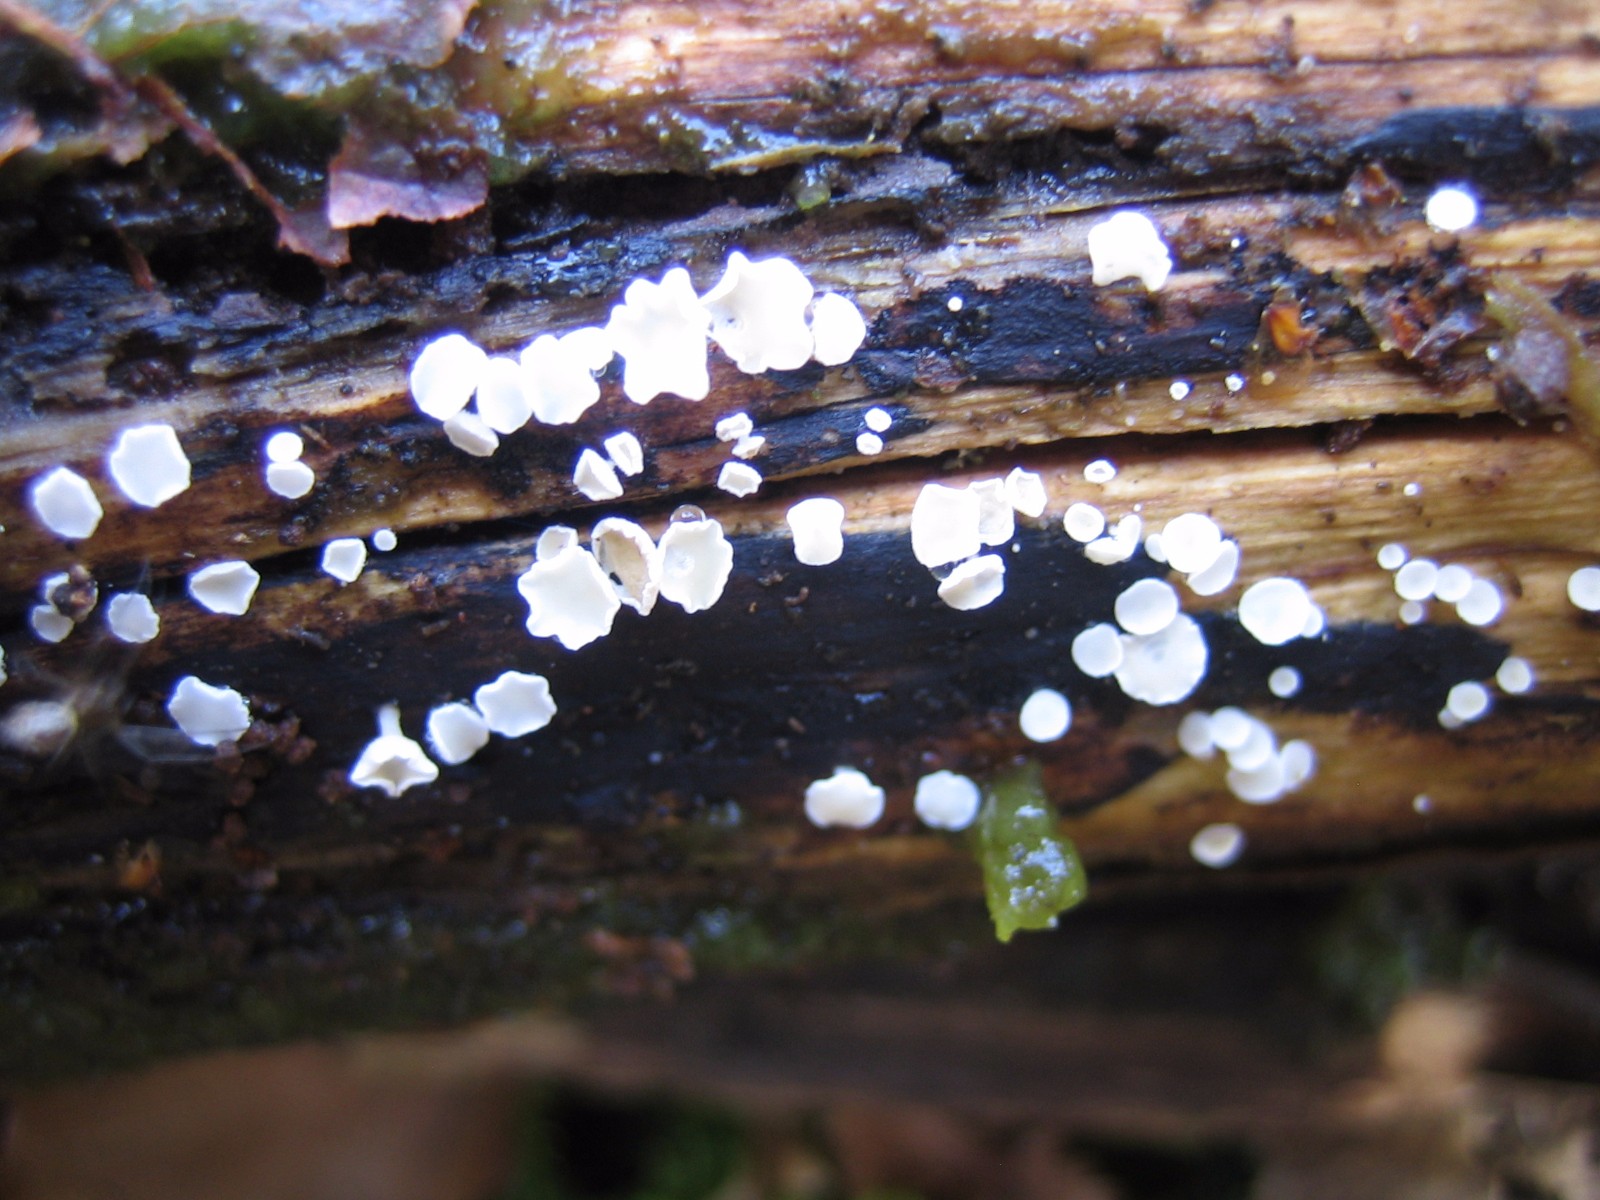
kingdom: Fungi
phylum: Ascomycota
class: Leotiomycetes
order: Helotiales
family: Lachnaceae
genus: Lachnum
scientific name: Lachnum
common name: frynseskive
